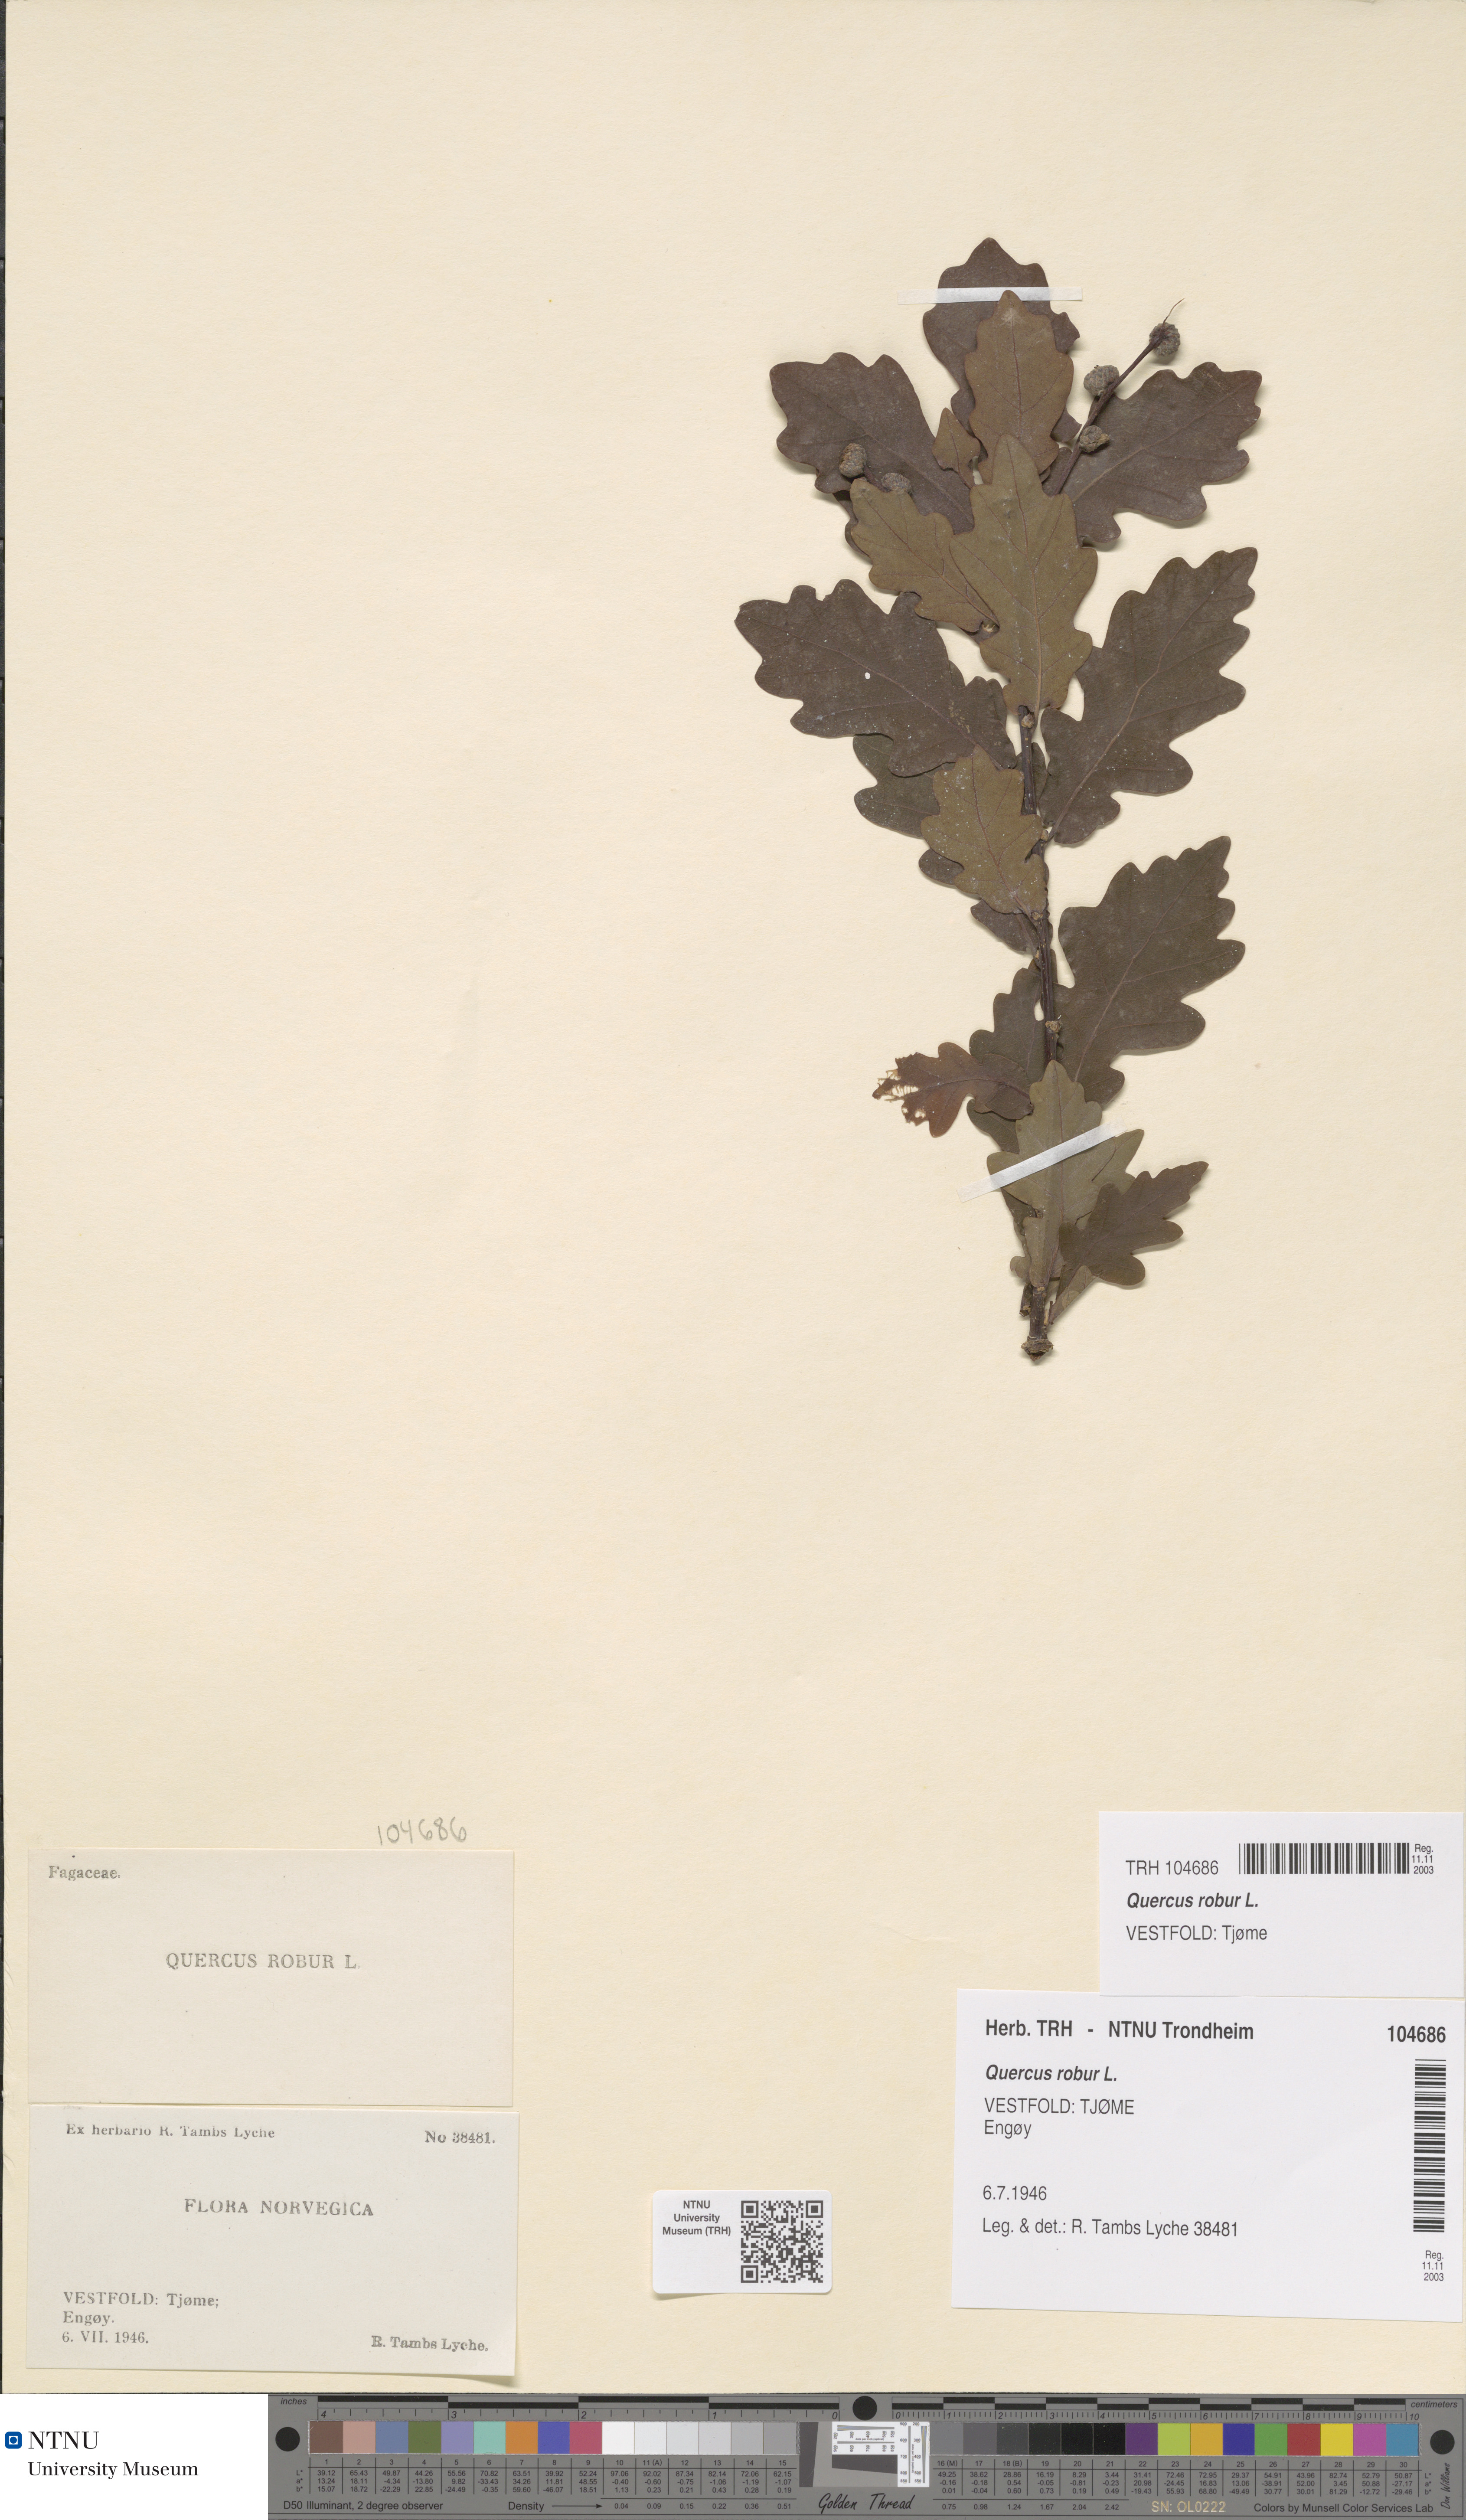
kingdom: Plantae
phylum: Tracheophyta
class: Magnoliopsida
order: Fagales
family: Fagaceae
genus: Quercus
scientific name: Quercus robur
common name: Pedunculate oak
